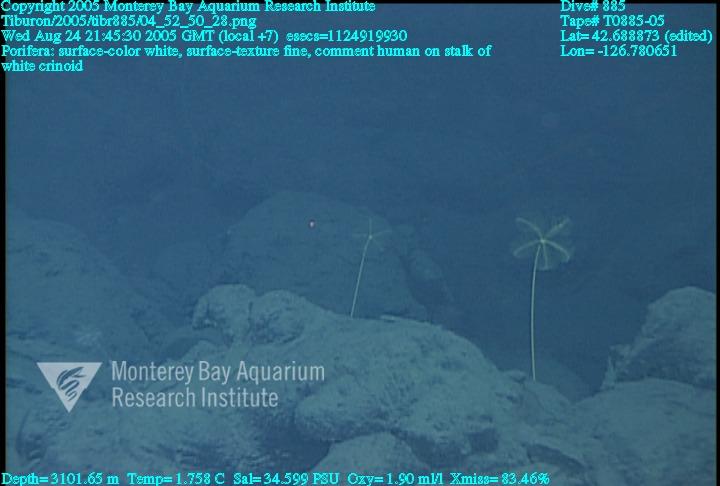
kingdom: Animalia
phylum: Porifera
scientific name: Porifera
